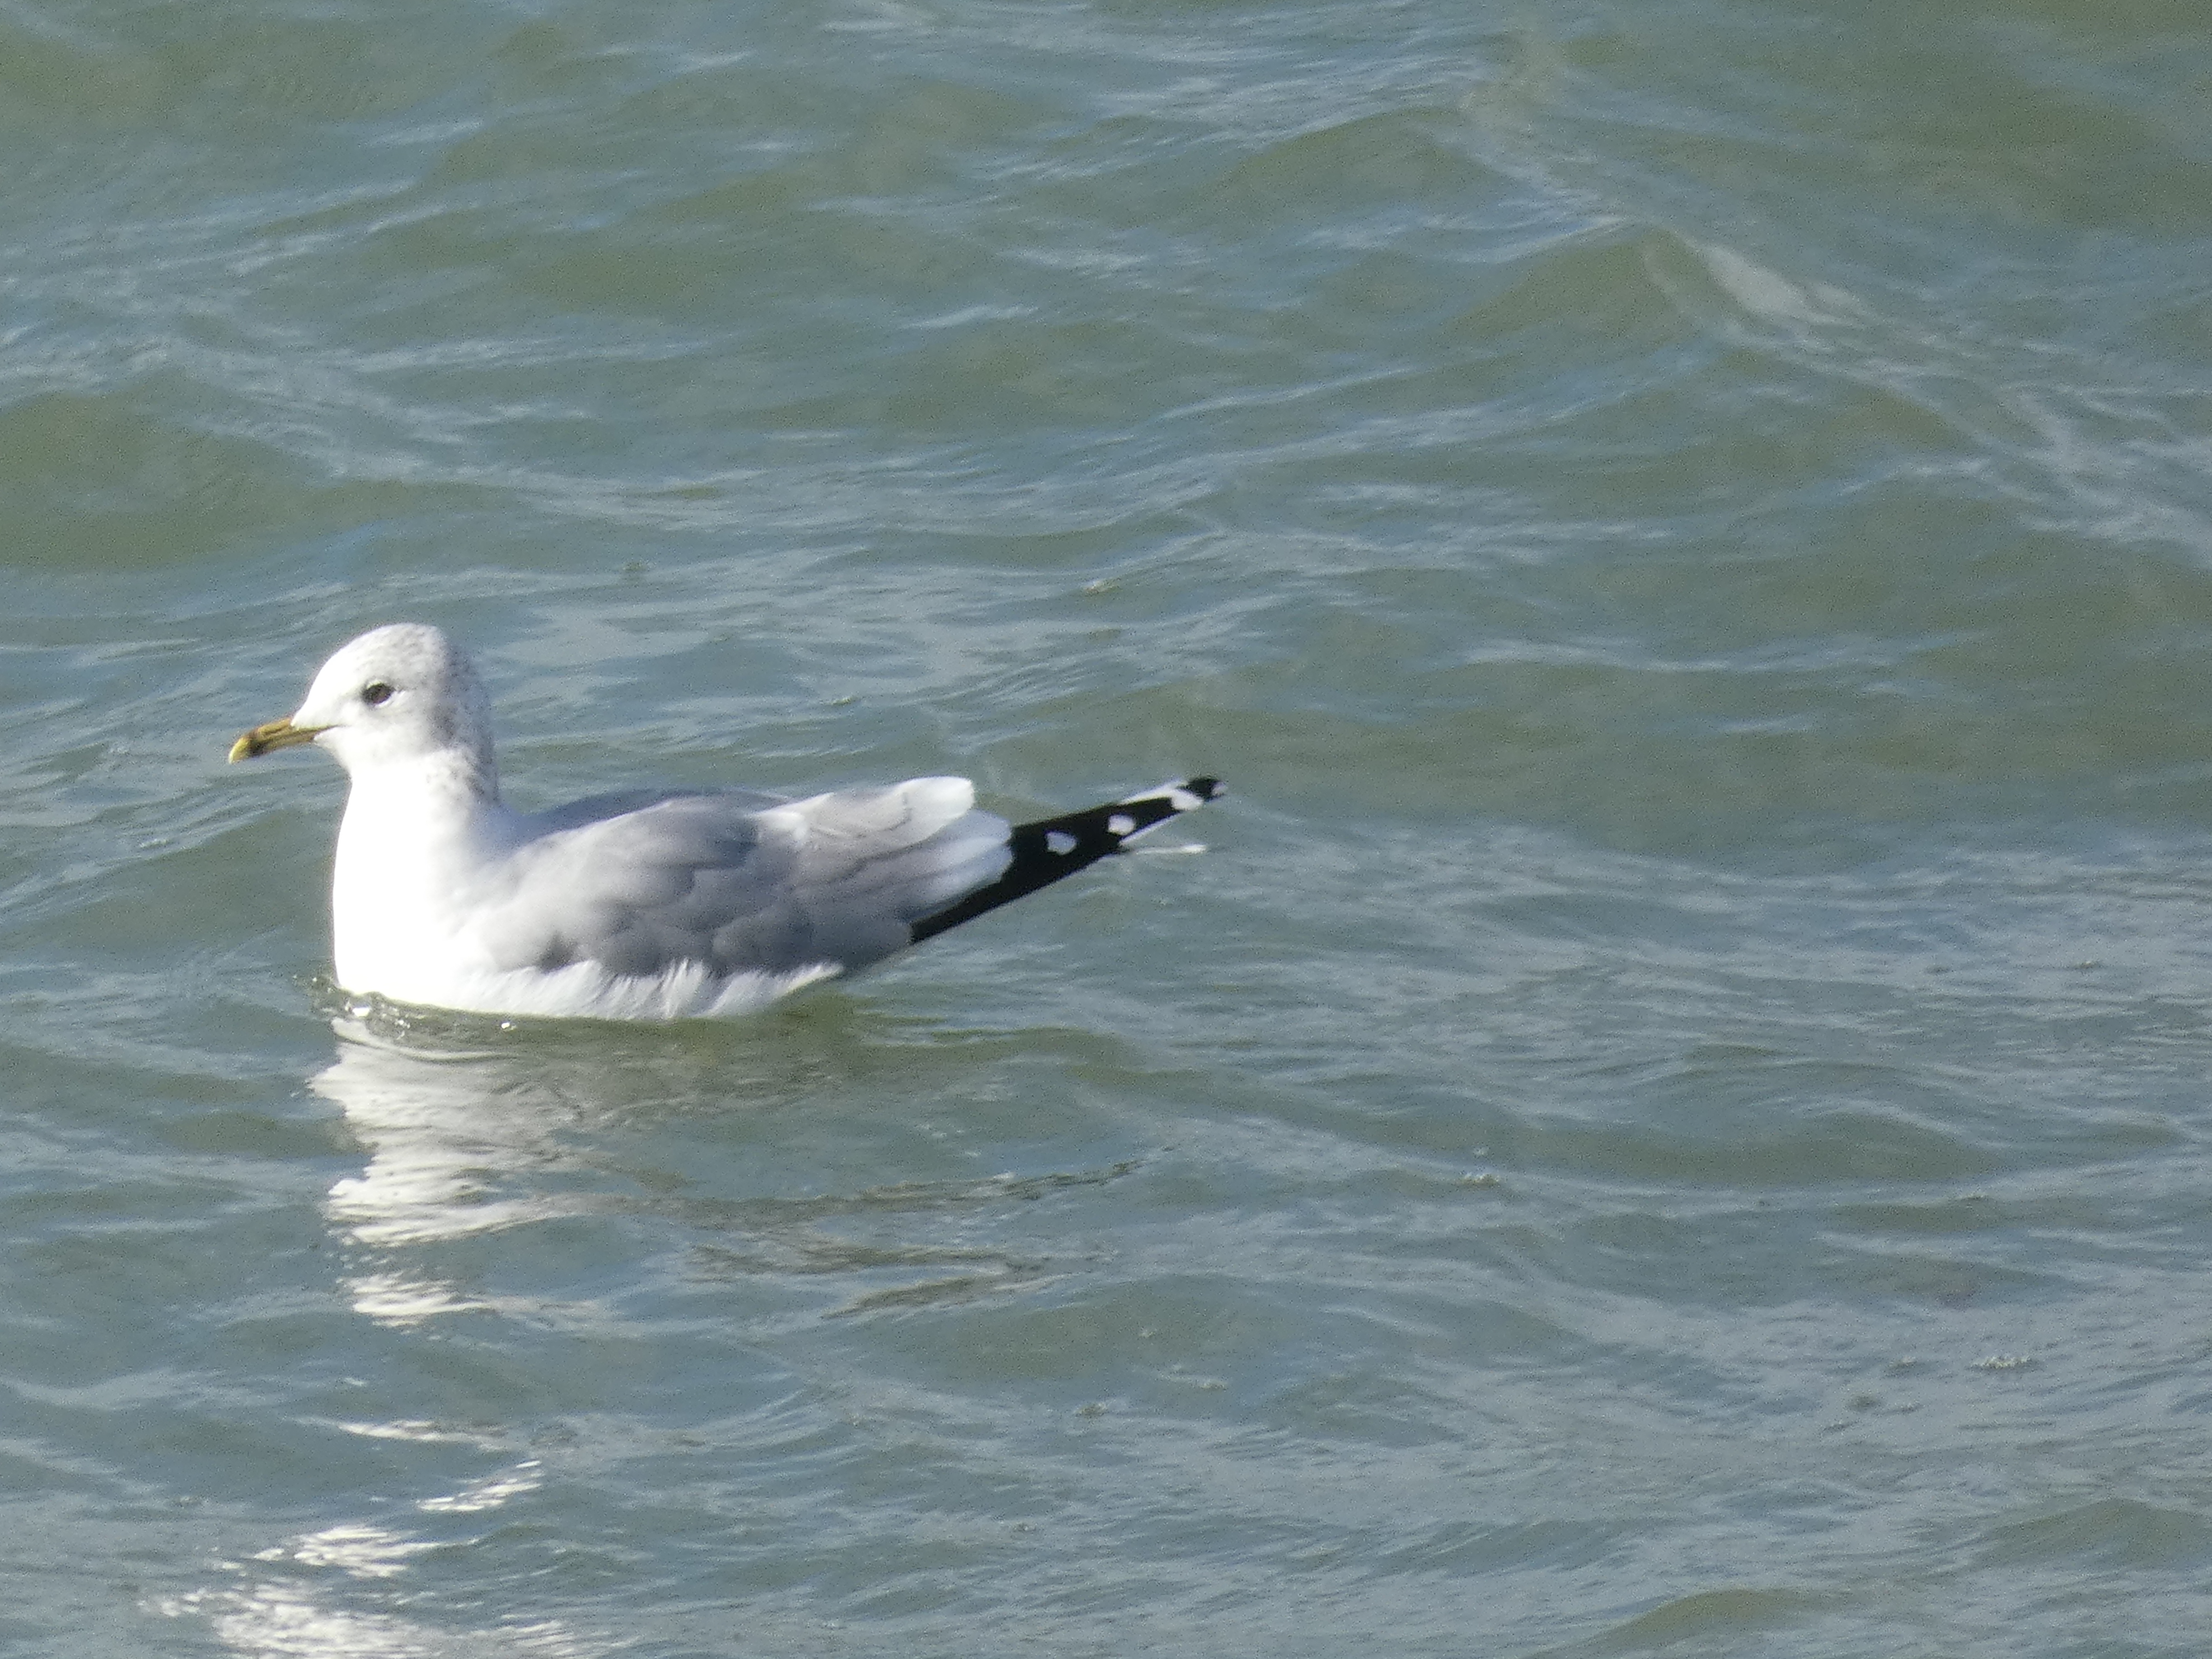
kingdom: Animalia
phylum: Chordata
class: Aves
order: Charadriiformes
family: Laridae
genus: Larus
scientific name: Larus canus
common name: Stormmåge
